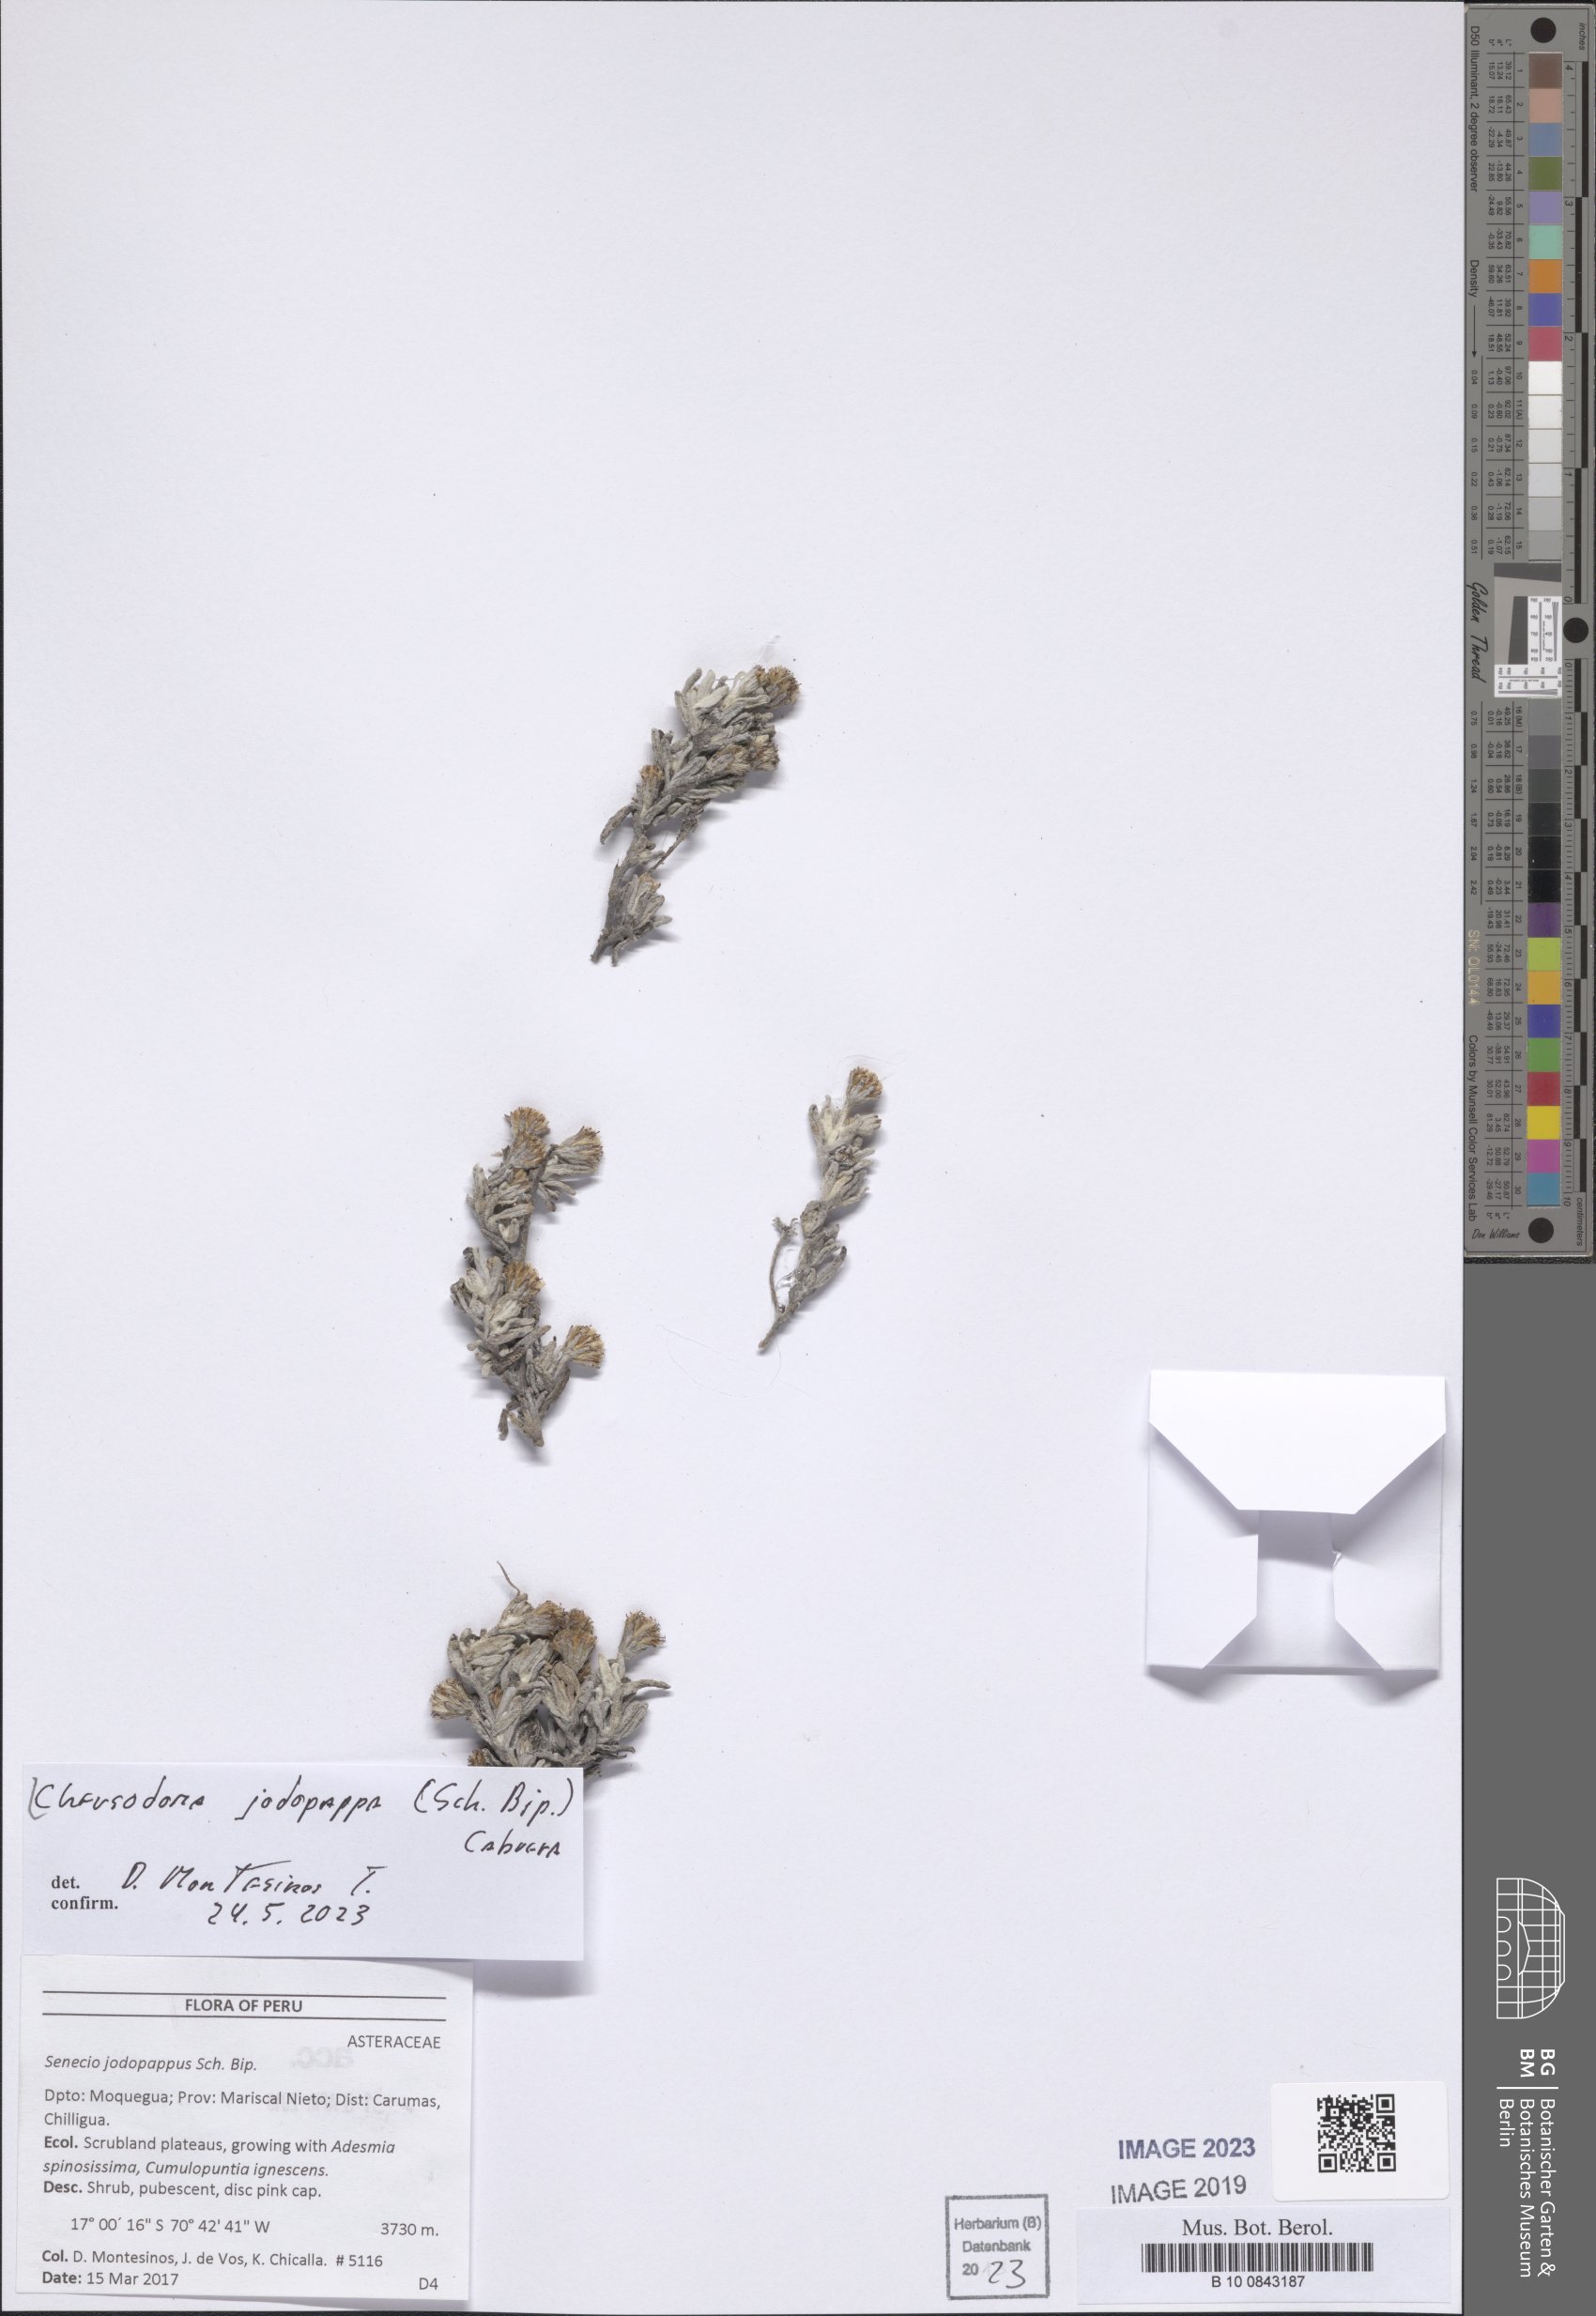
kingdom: Plantae
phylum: Tracheophyta
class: Magnoliopsida
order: Asterales
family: Asteraceae
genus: Chersodoma
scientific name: Chersodoma jodopappa
